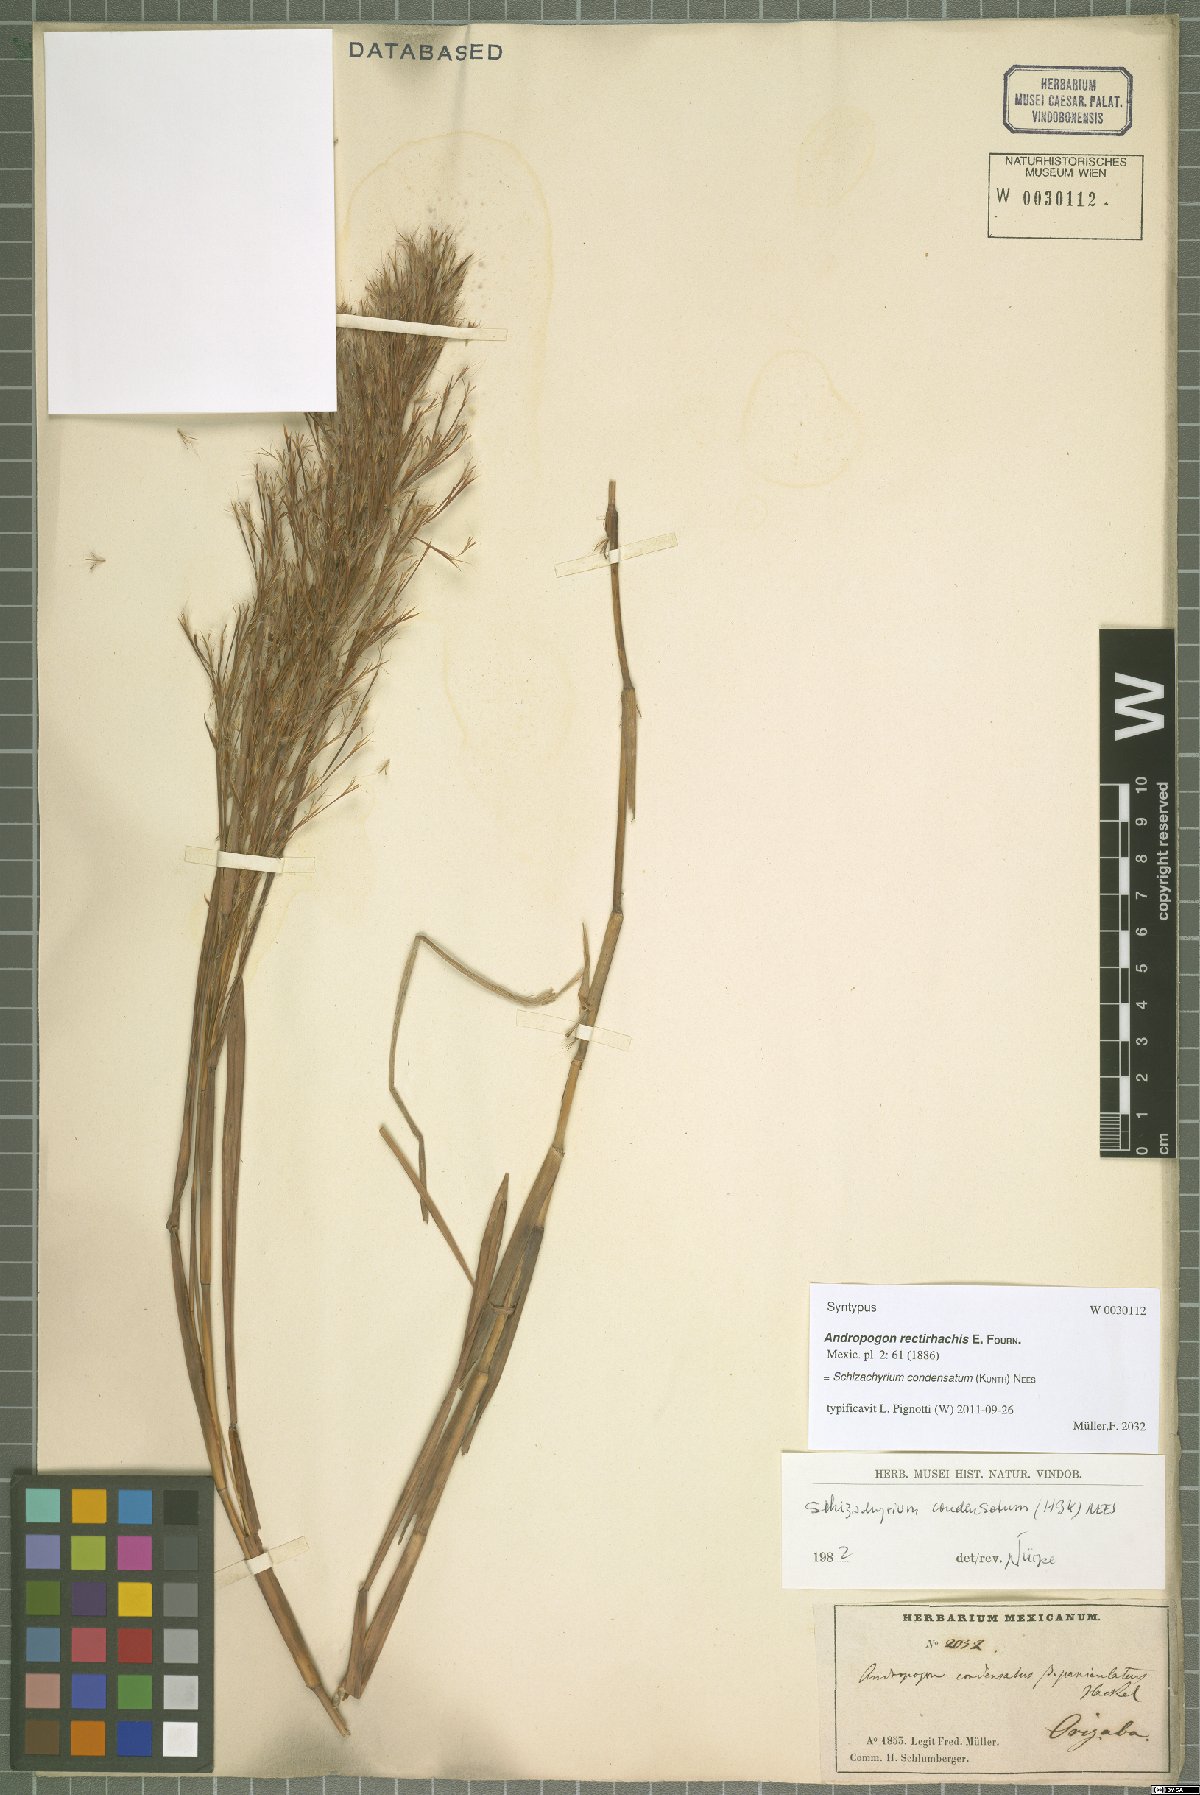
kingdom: Plantae
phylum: Tracheophyta
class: Liliopsida
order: Poales
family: Poaceae
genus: Schizachyrium
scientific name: Schizachyrium condensatum
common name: Bush beardgrass
